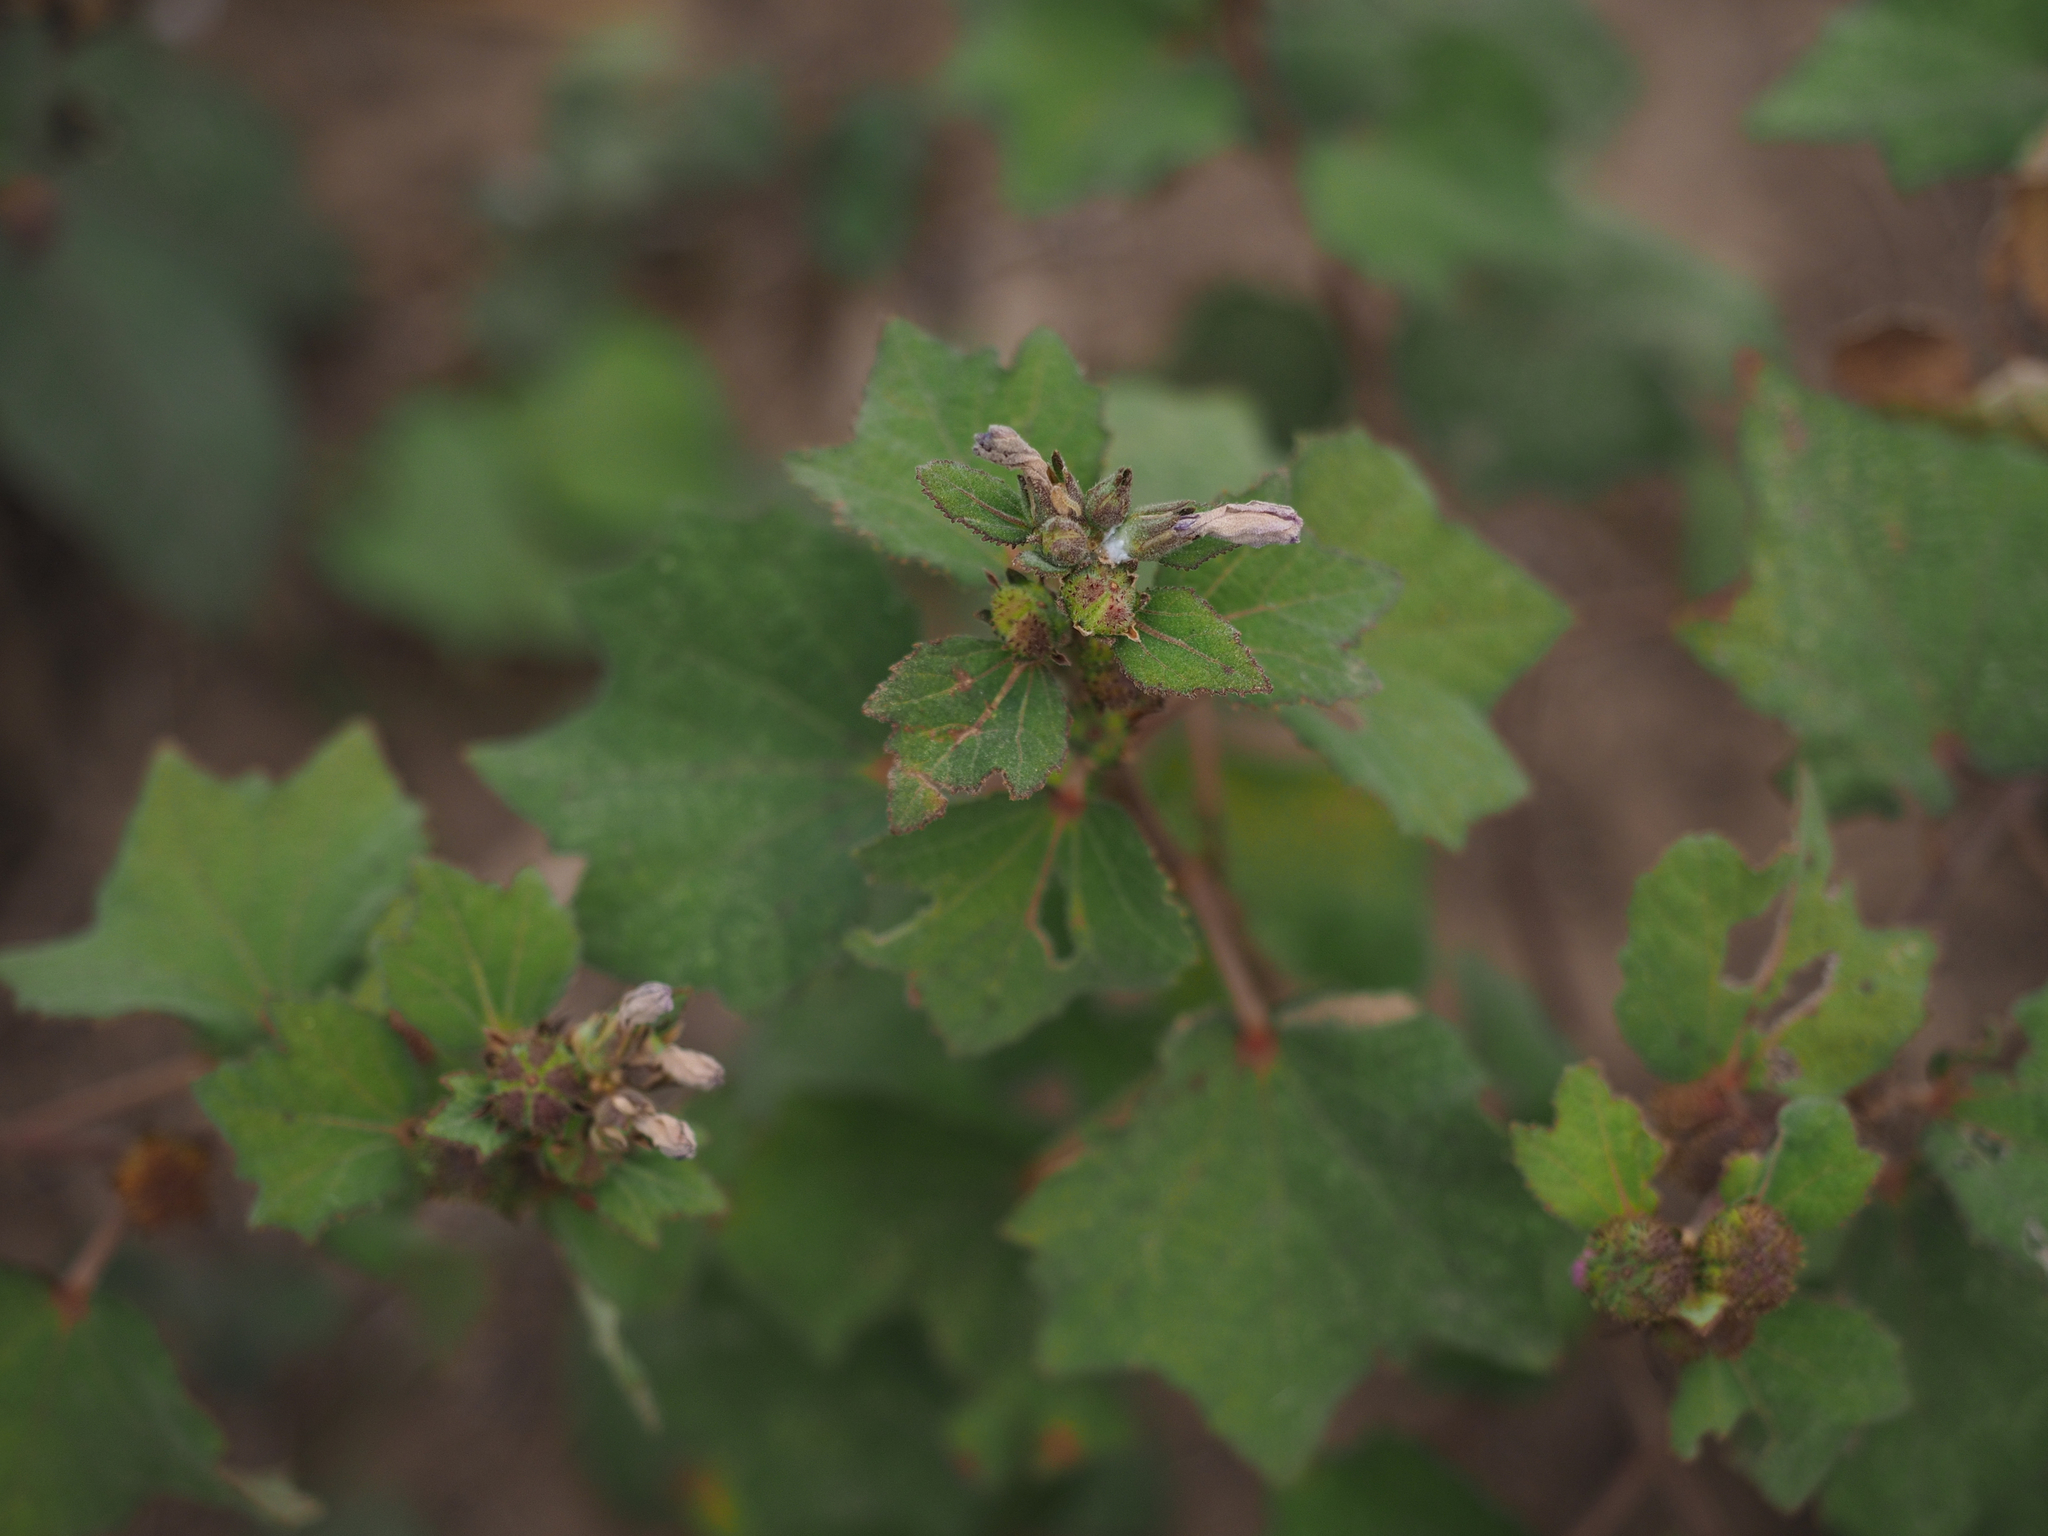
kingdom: Plantae
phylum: Tracheophyta
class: Magnoliopsida
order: Malvales
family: Malvaceae
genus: Urena
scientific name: Urena lobata
